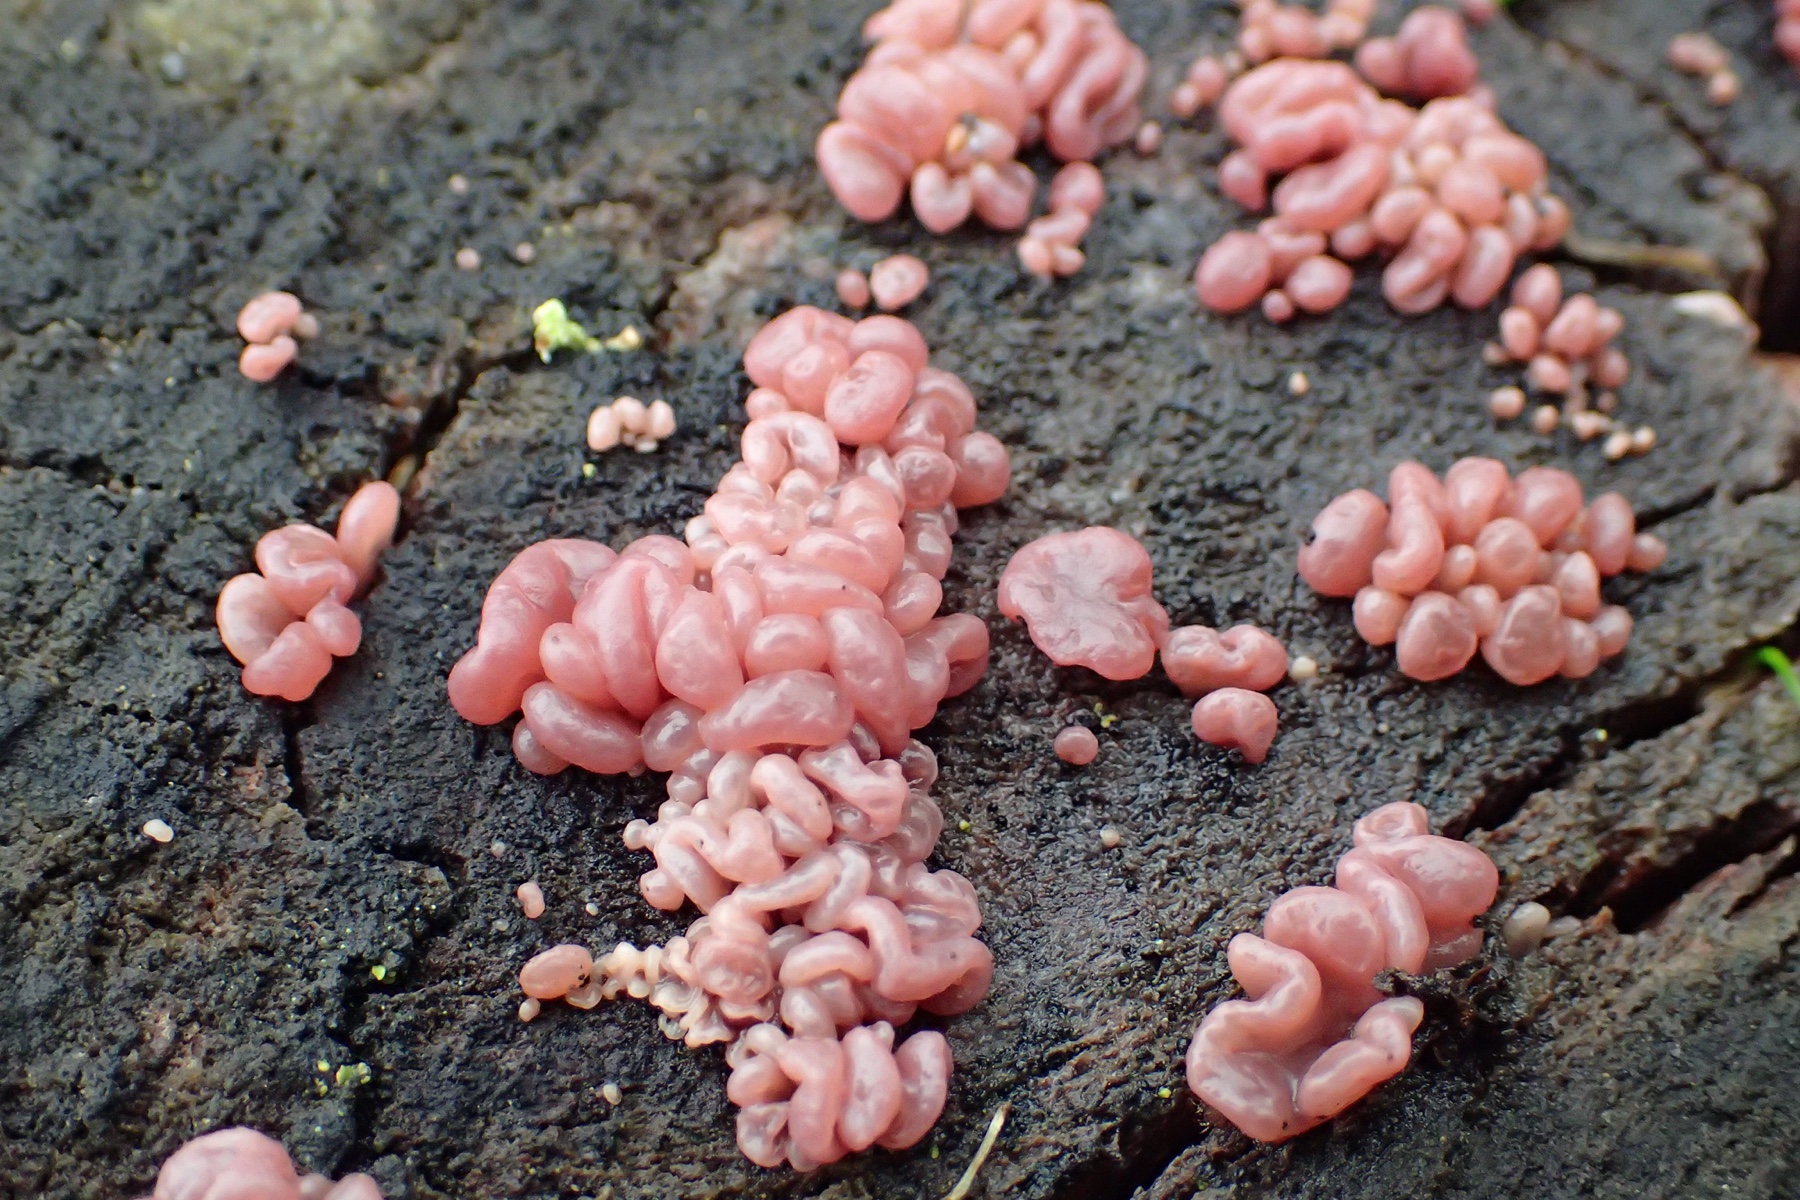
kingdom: Fungi
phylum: Ascomycota
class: Leotiomycetes
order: Helotiales
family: Gelatinodiscaceae
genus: Ascocoryne
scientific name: Ascocoryne sarcoides
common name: rødlilla sejskive
